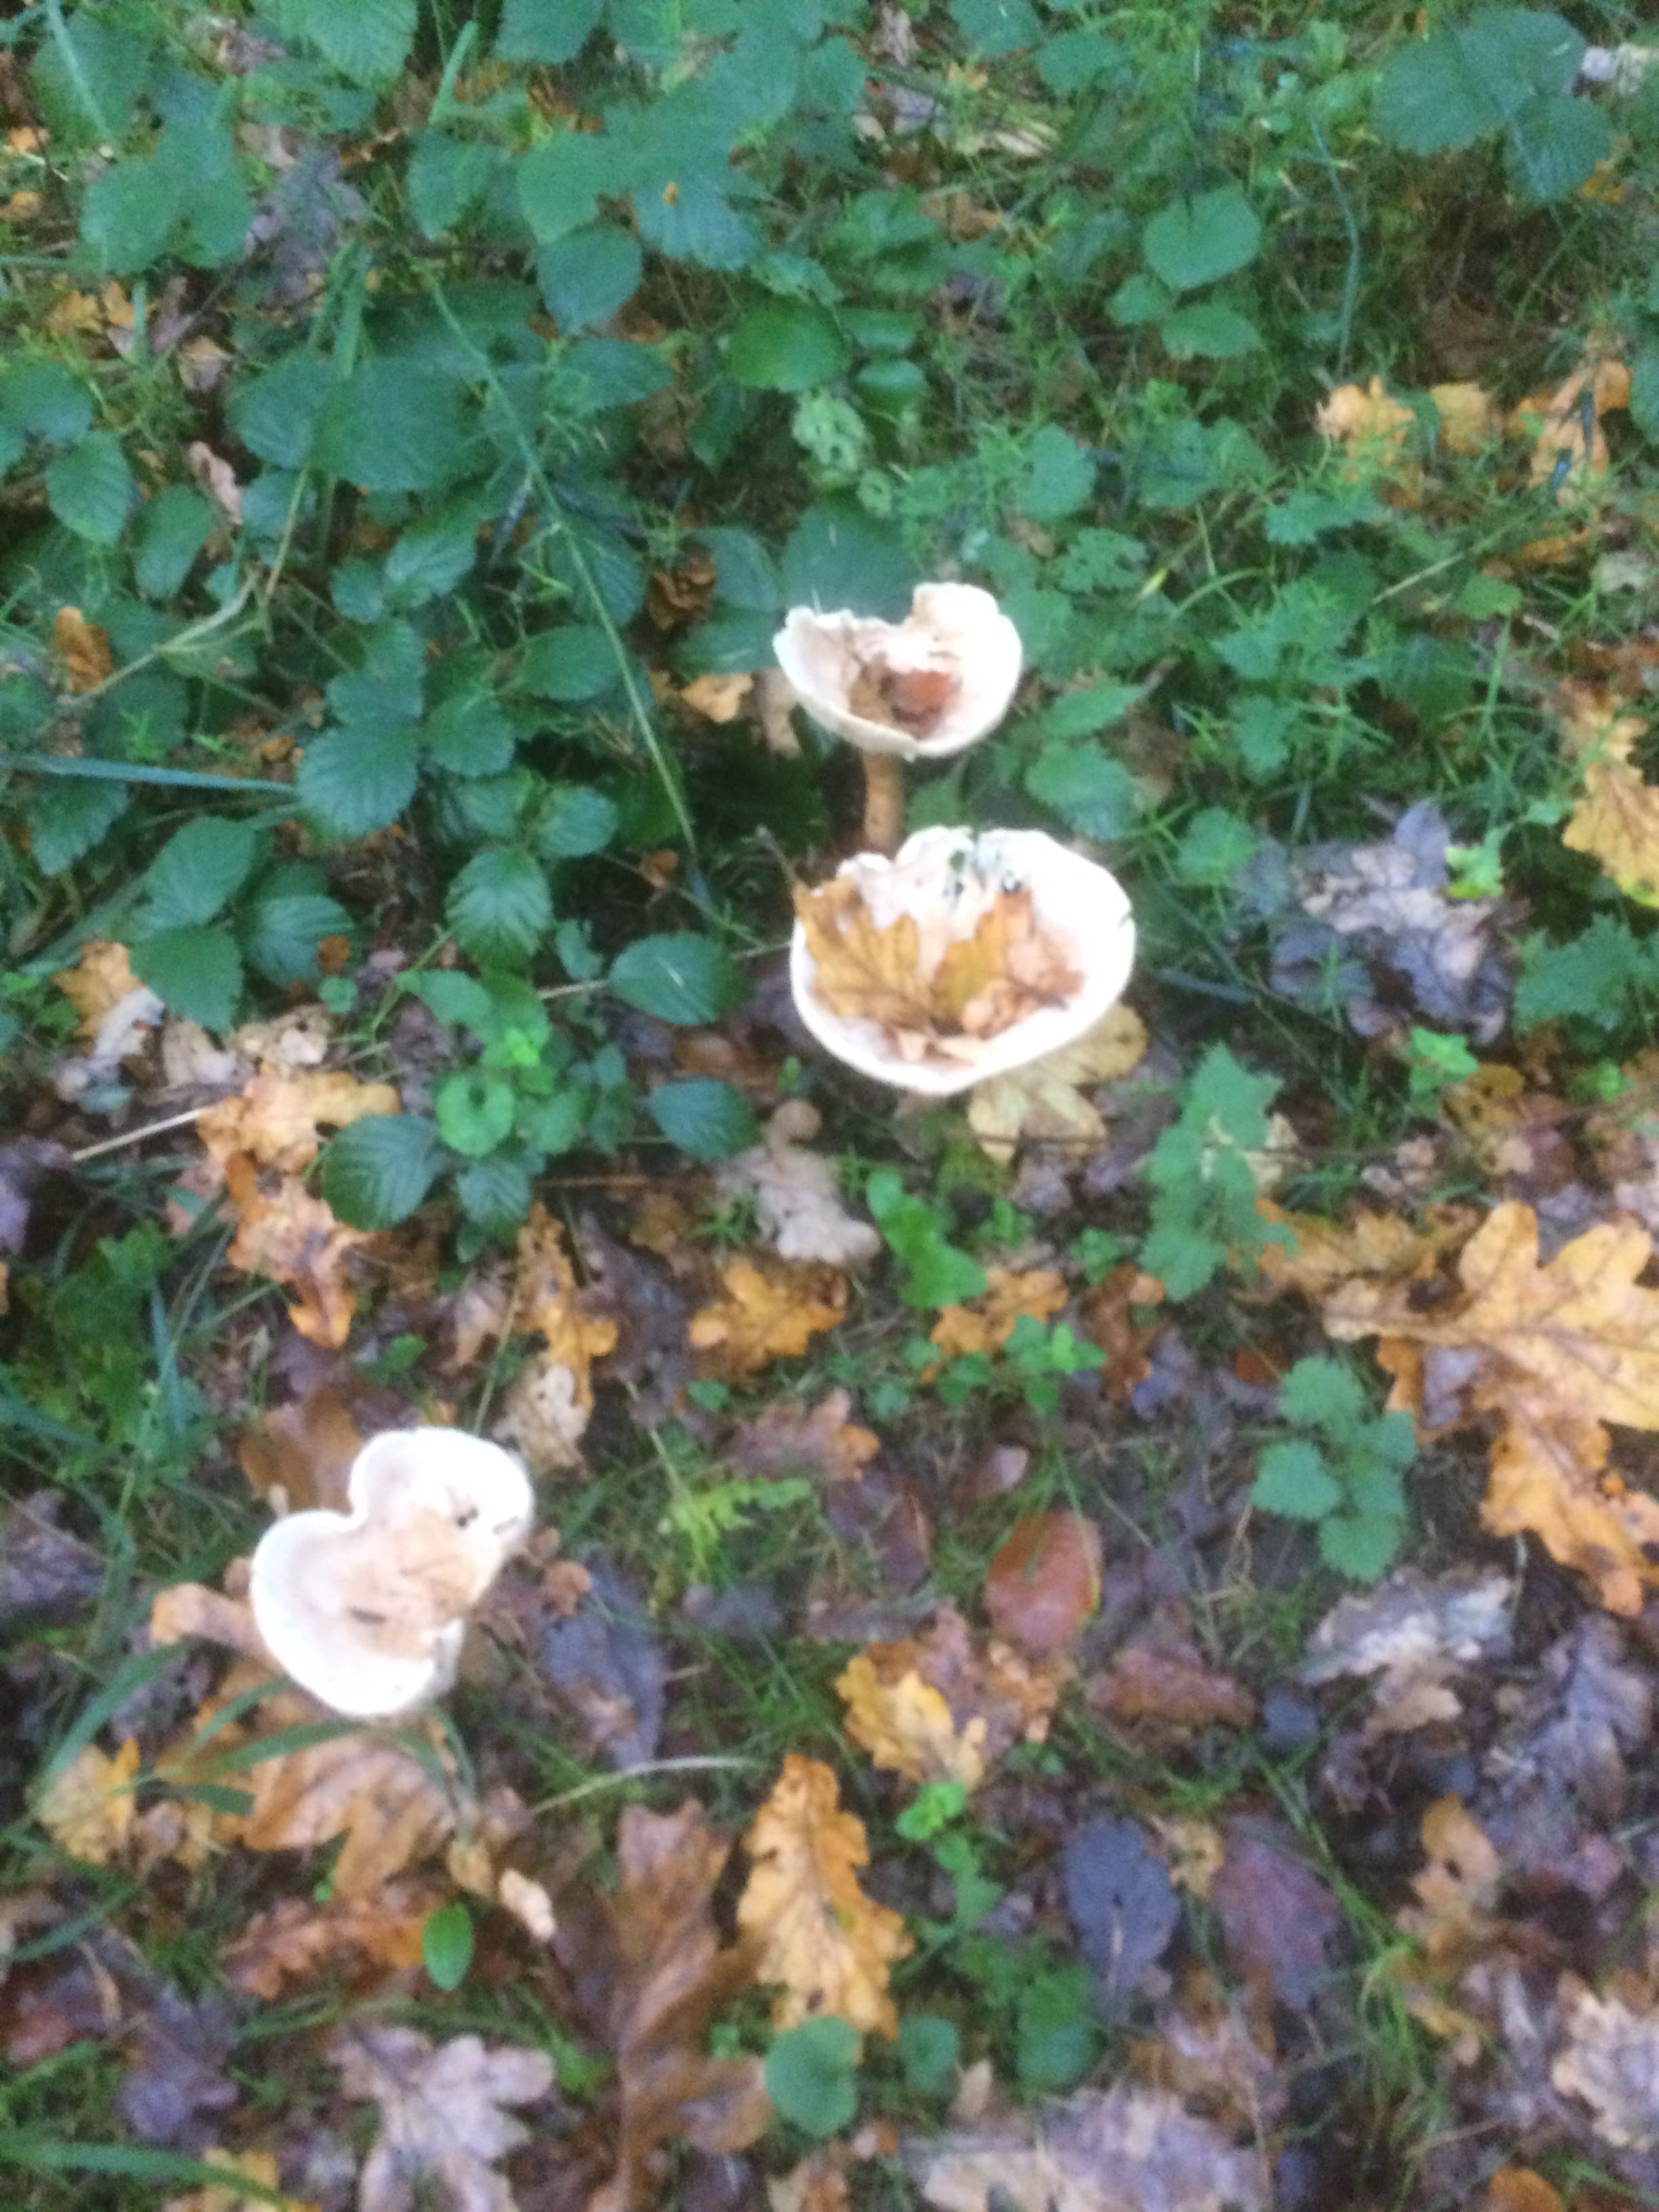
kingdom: Fungi
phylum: Basidiomycota
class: Agaricomycetes
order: Agaricales
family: Tricholomataceae
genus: Infundibulicybe
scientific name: Infundibulicybe geotropa
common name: stor tragthat
